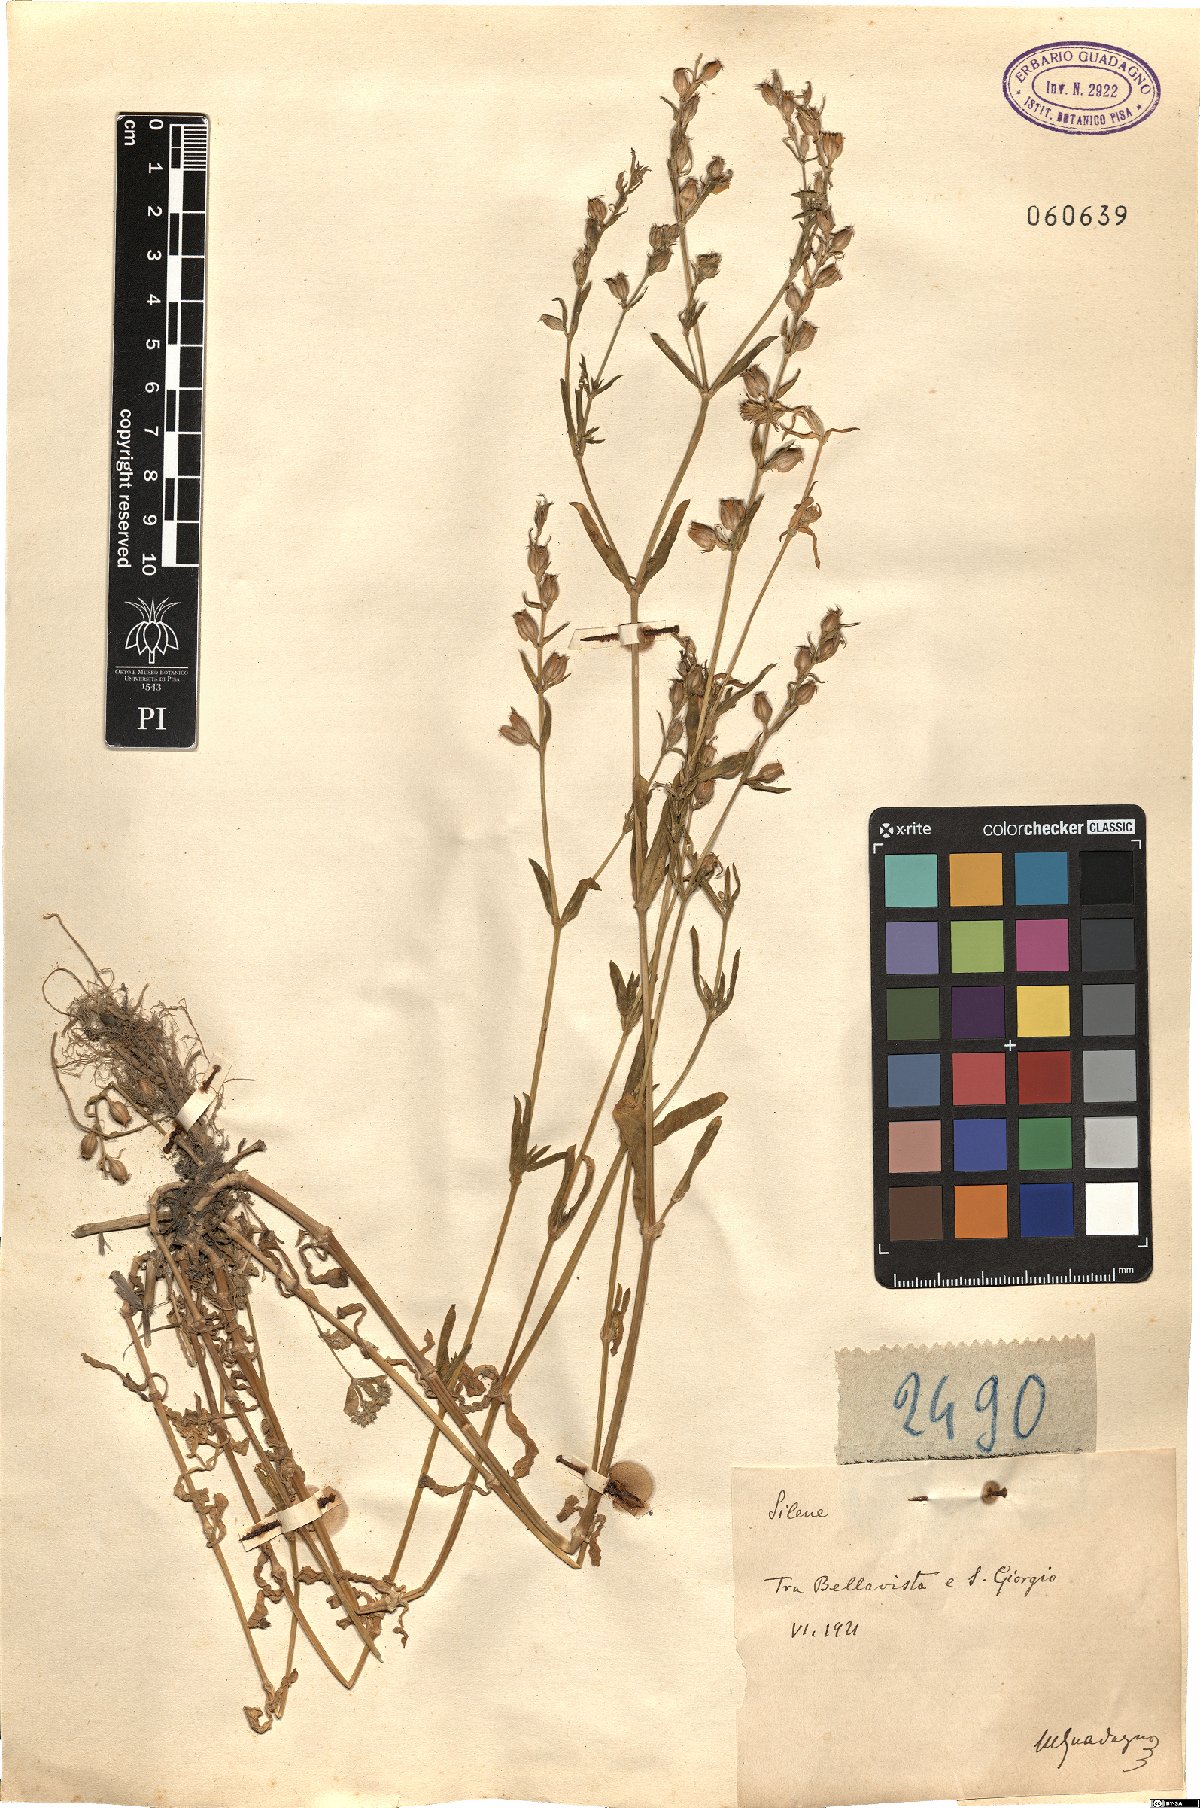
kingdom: Plantae
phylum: Tracheophyta
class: Magnoliopsida
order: Caryophyllales
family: Caryophyllaceae
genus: Silene
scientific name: Silene
